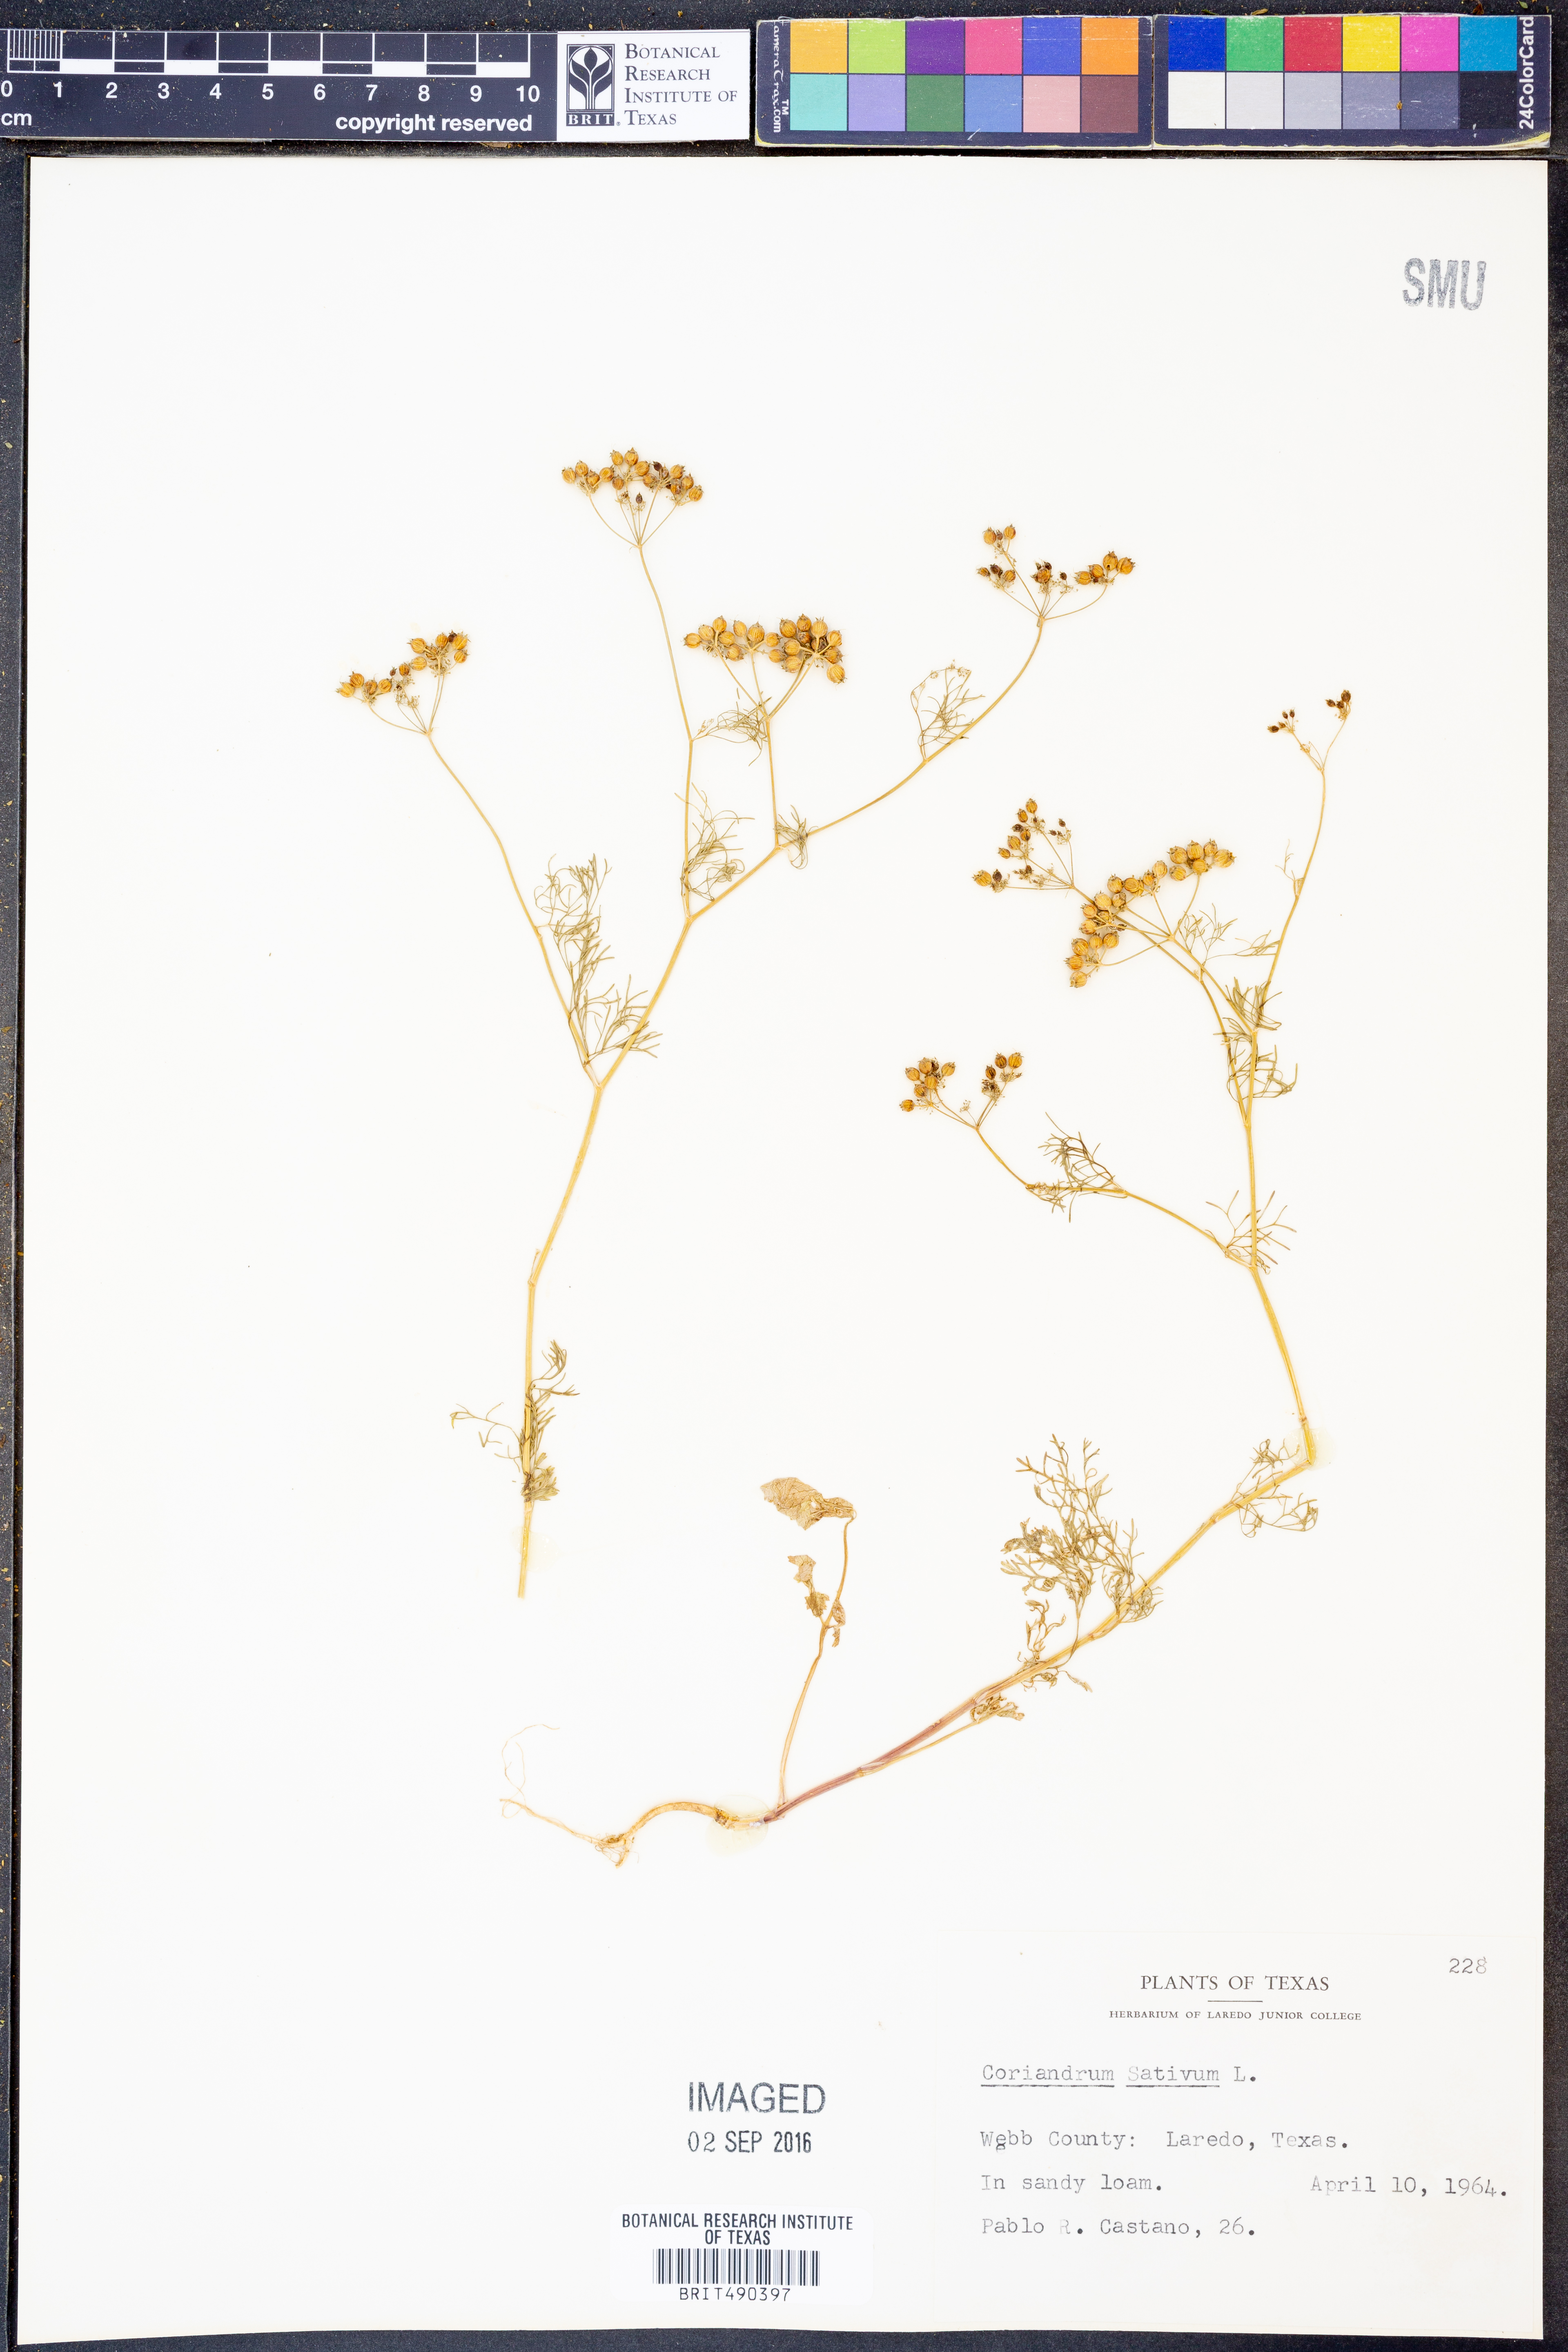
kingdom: Plantae
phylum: Tracheophyta
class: Magnoliopsida
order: Apiales
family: Apiaceae
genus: Coriandrum
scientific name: Coriandrum sativum
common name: Coriander
